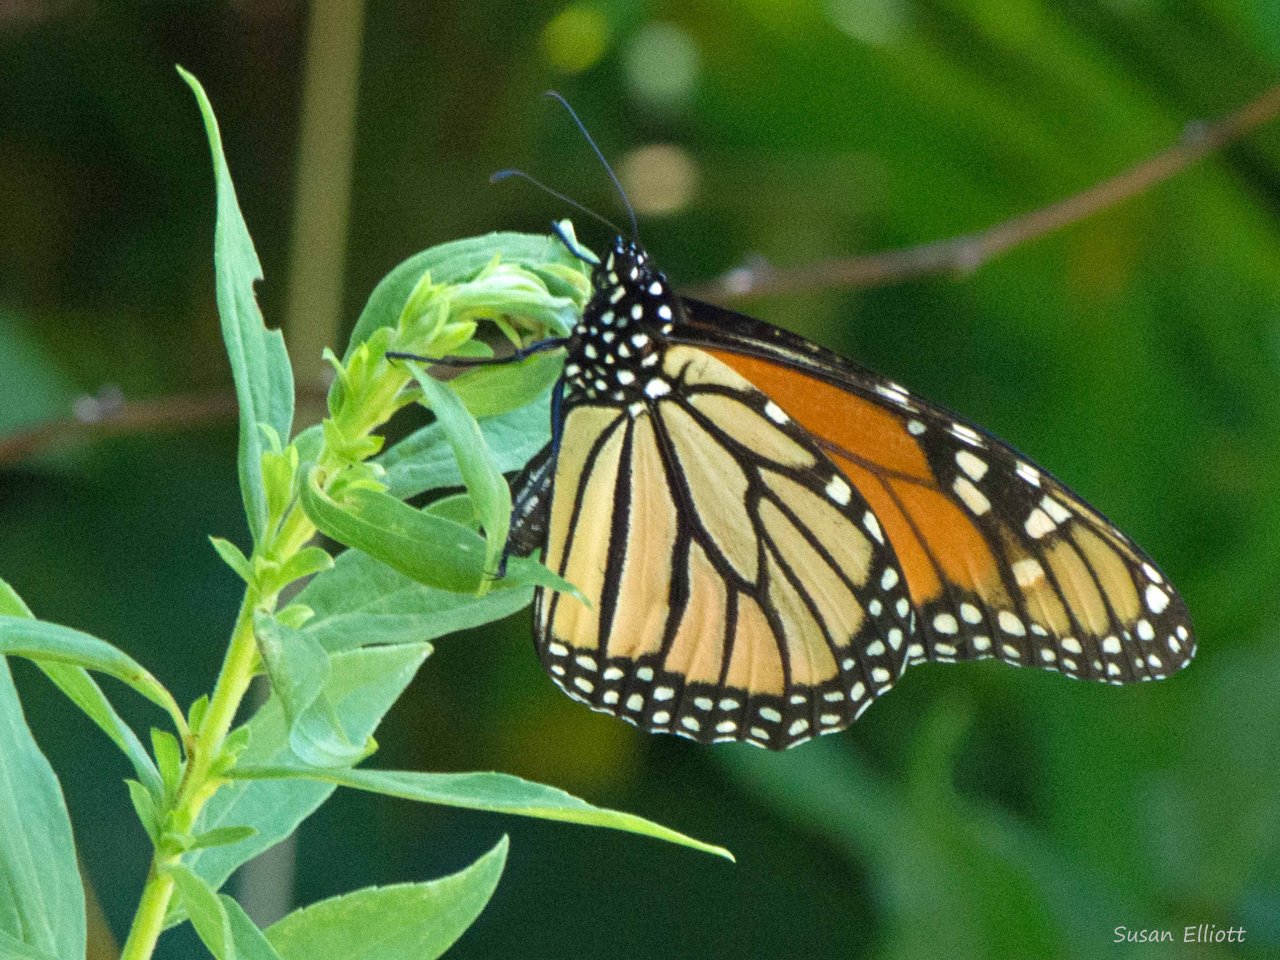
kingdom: Animalia
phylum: Arthropoda
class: Insecta
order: Lepidoptera
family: Nymphalidae
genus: Danaus
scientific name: Danaus plexippus
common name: Monarch
